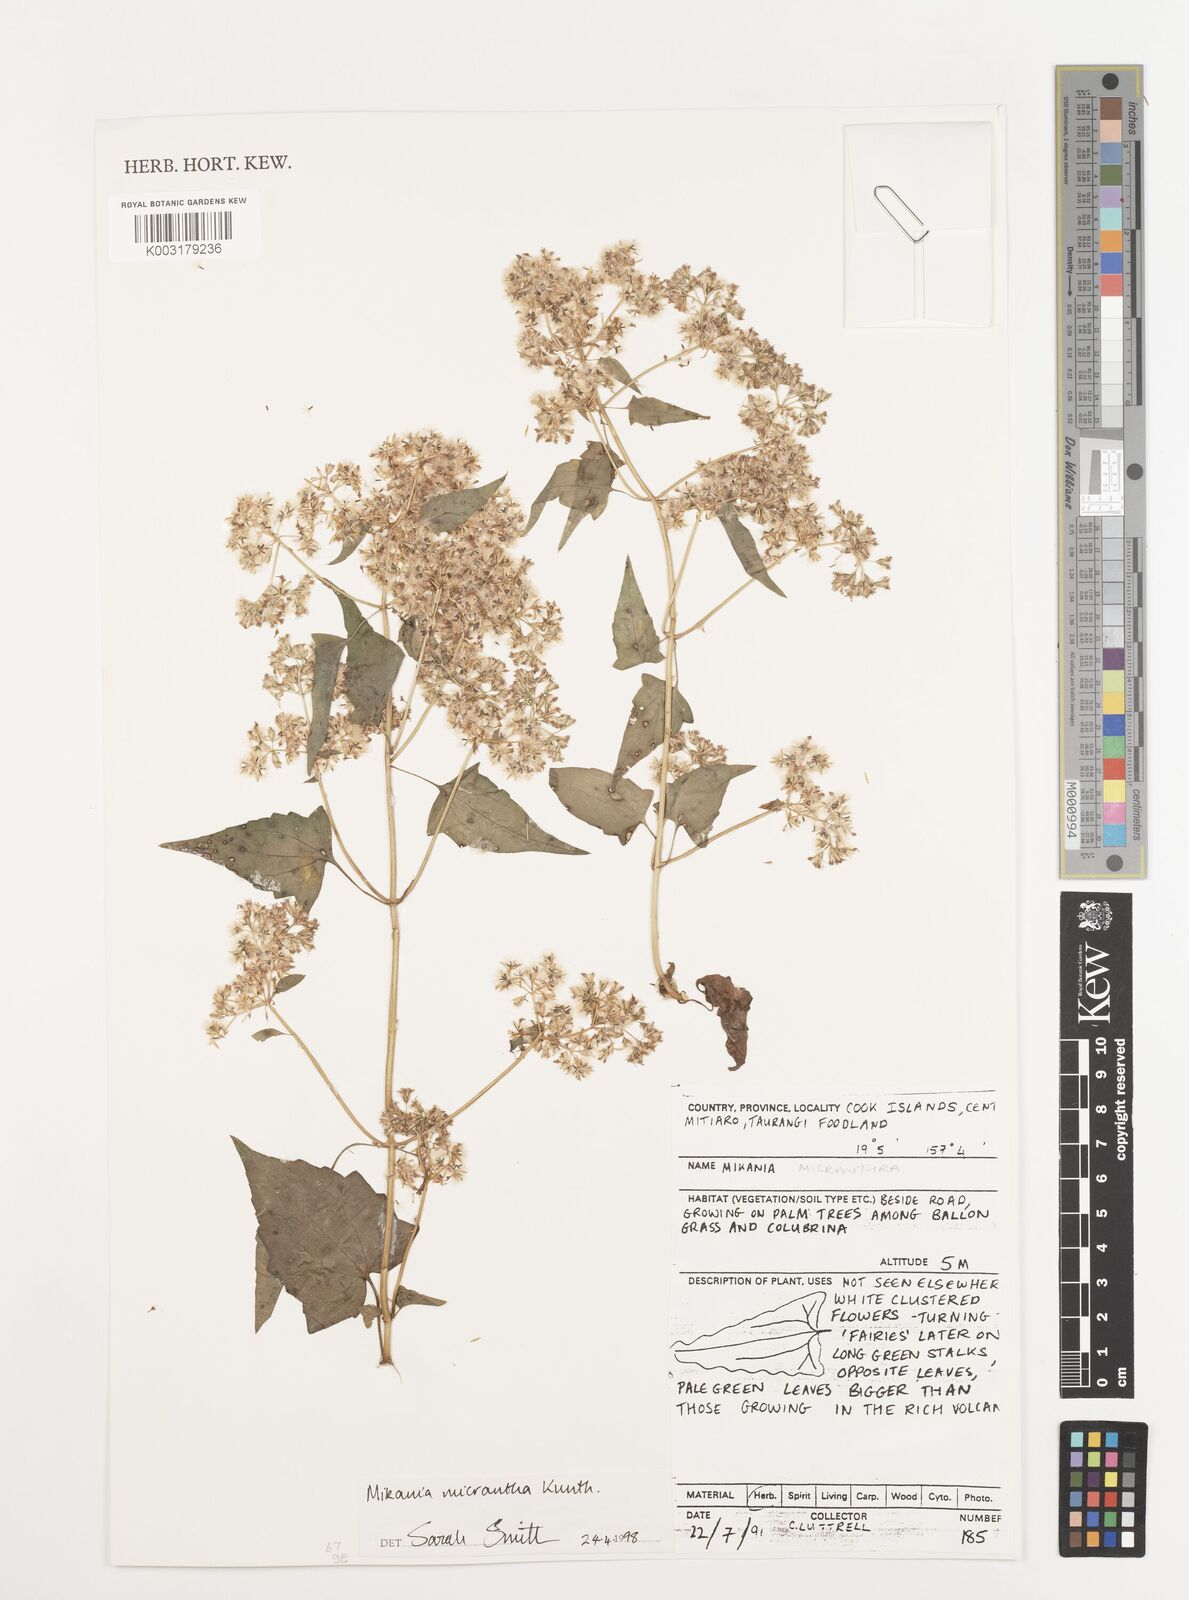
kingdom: Plantae
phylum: Tracheophyta
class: Magnoliopsida
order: Asterales
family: Asteraceae
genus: Mikania
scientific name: Mikania micrantha
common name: Mile-a-minute
